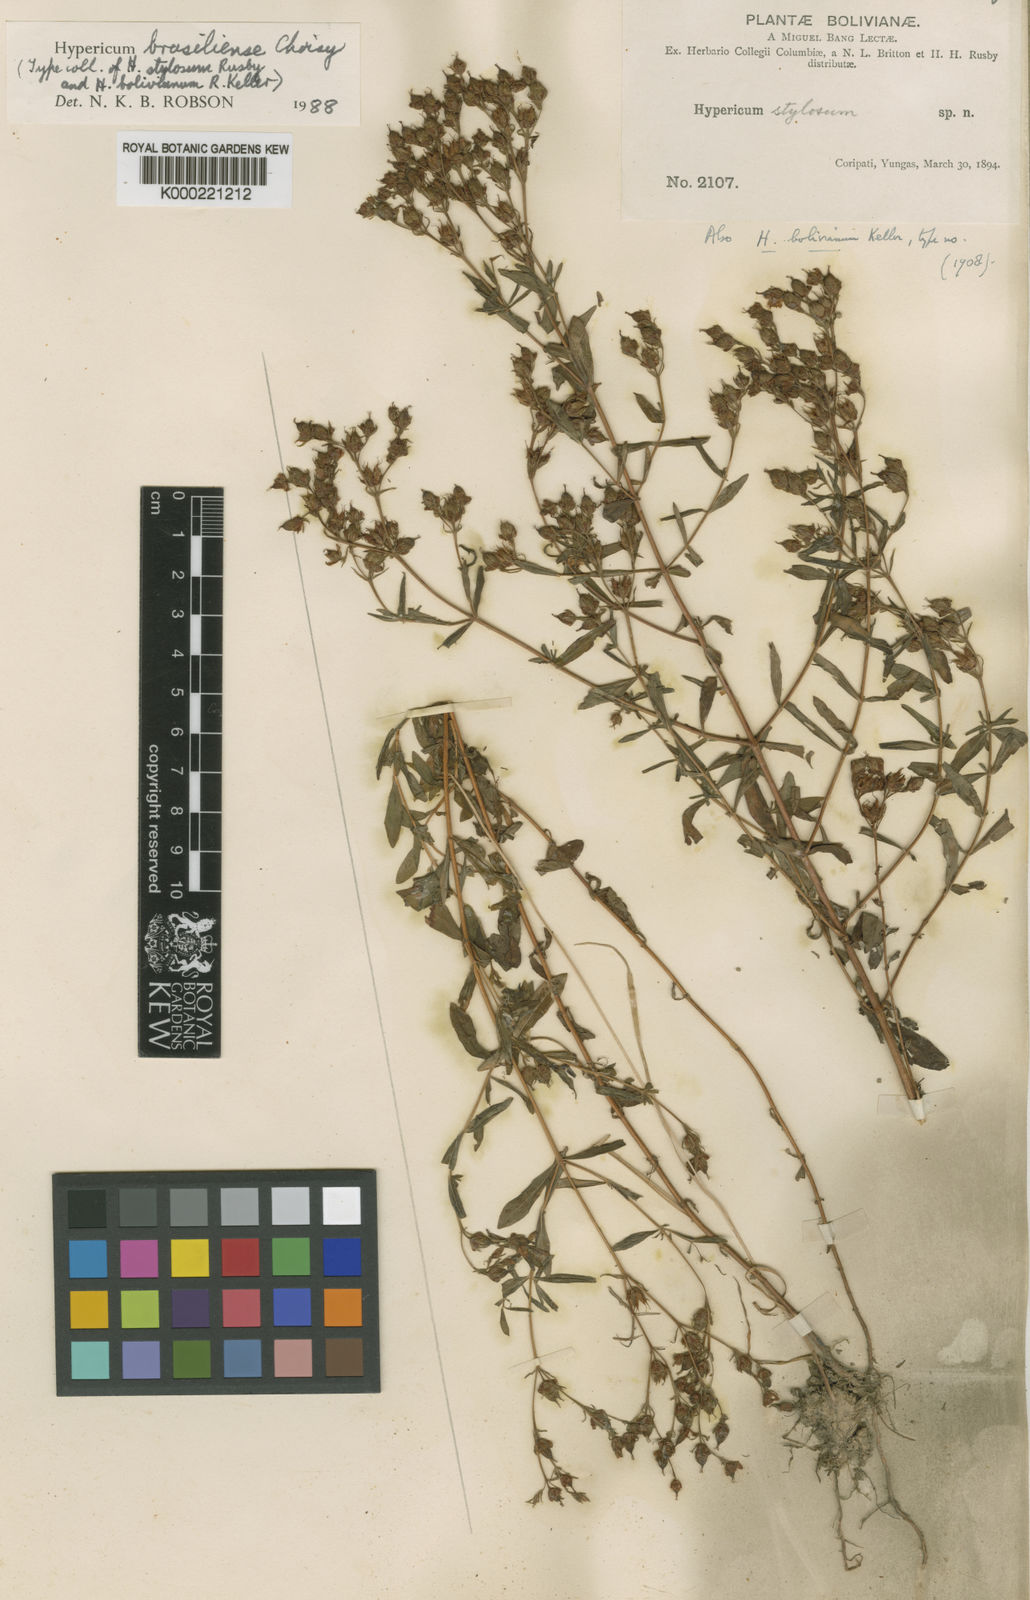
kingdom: Plantae
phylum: Tracheophyta
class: Magnoliopsida
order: Malpighiales
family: Hypericaceae
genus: Hypericum
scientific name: Hypericum brasiliense
